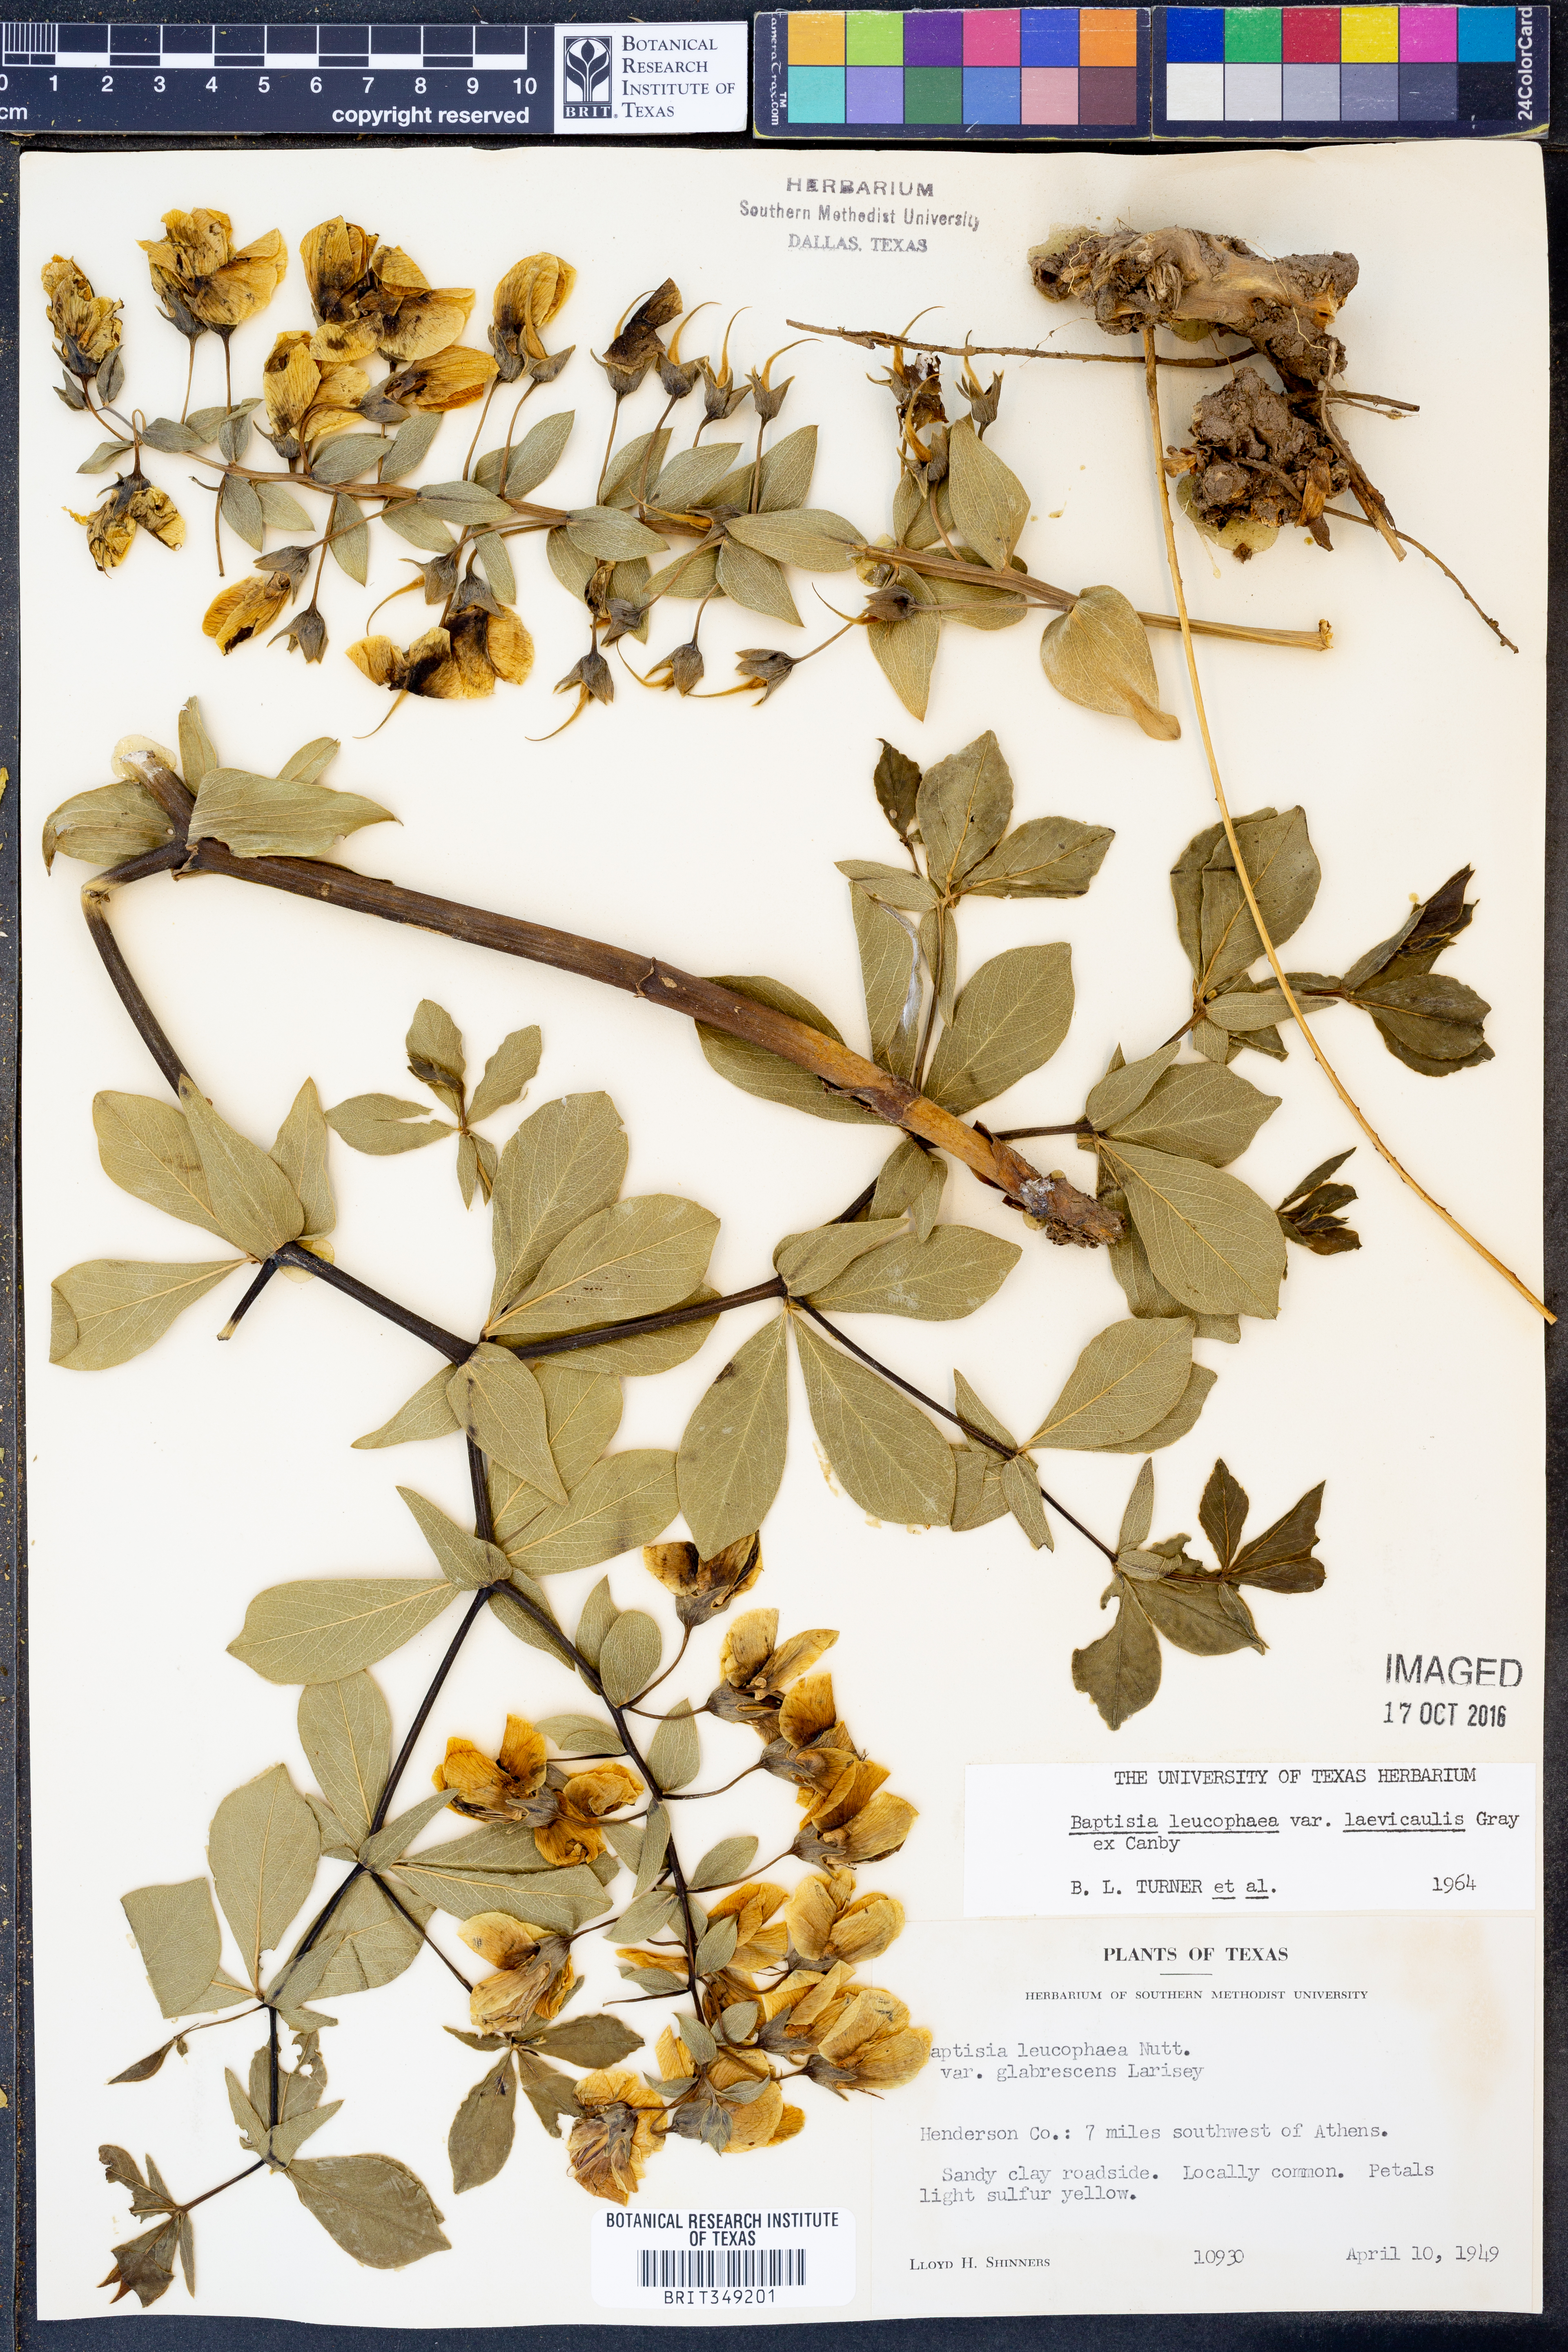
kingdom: Plantae
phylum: Tracheophyta
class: Magnoliopsida
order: Fabales
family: Fabaceae
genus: Baptisia
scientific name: Baptisia bracteata
